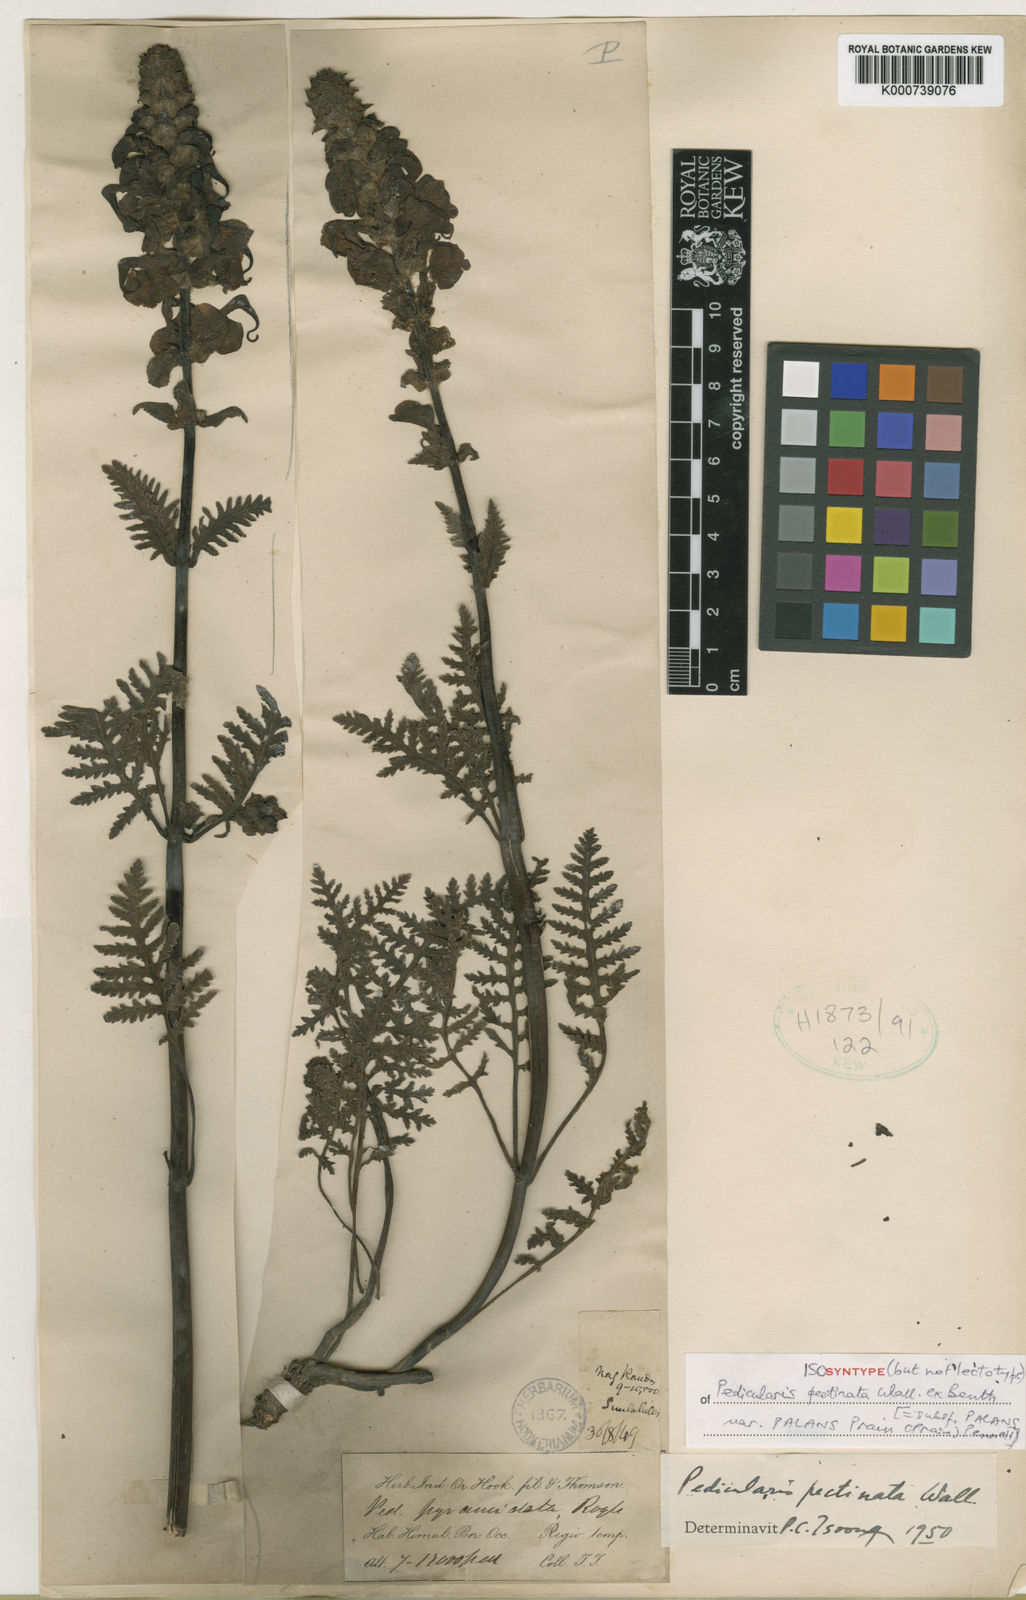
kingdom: Plantae
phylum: Tracheophyta
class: Magnoliopsida
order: Lamiales
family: Orobanchaceae
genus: Pedicularis
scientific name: Pedicularis stewartii
